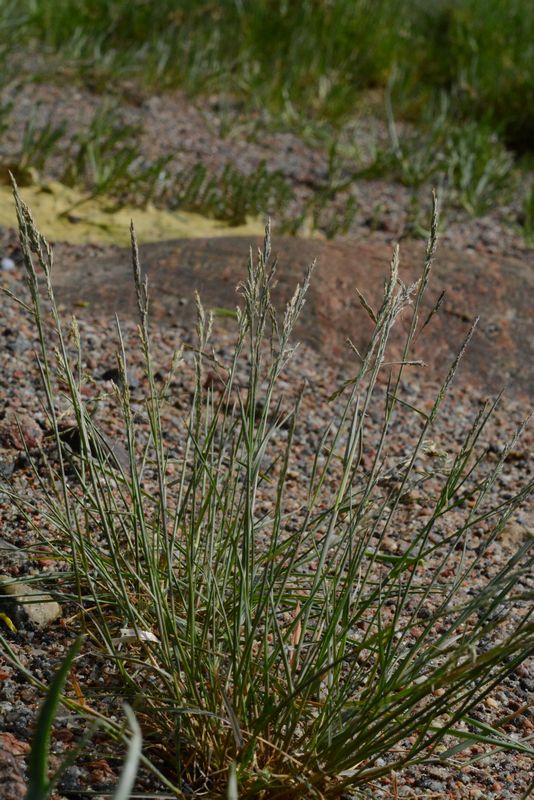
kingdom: Plantae
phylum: Tracheophyta
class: Liliopsida
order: Poales
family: Poaceae
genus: Puccinellia
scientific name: Puccinellia distans
